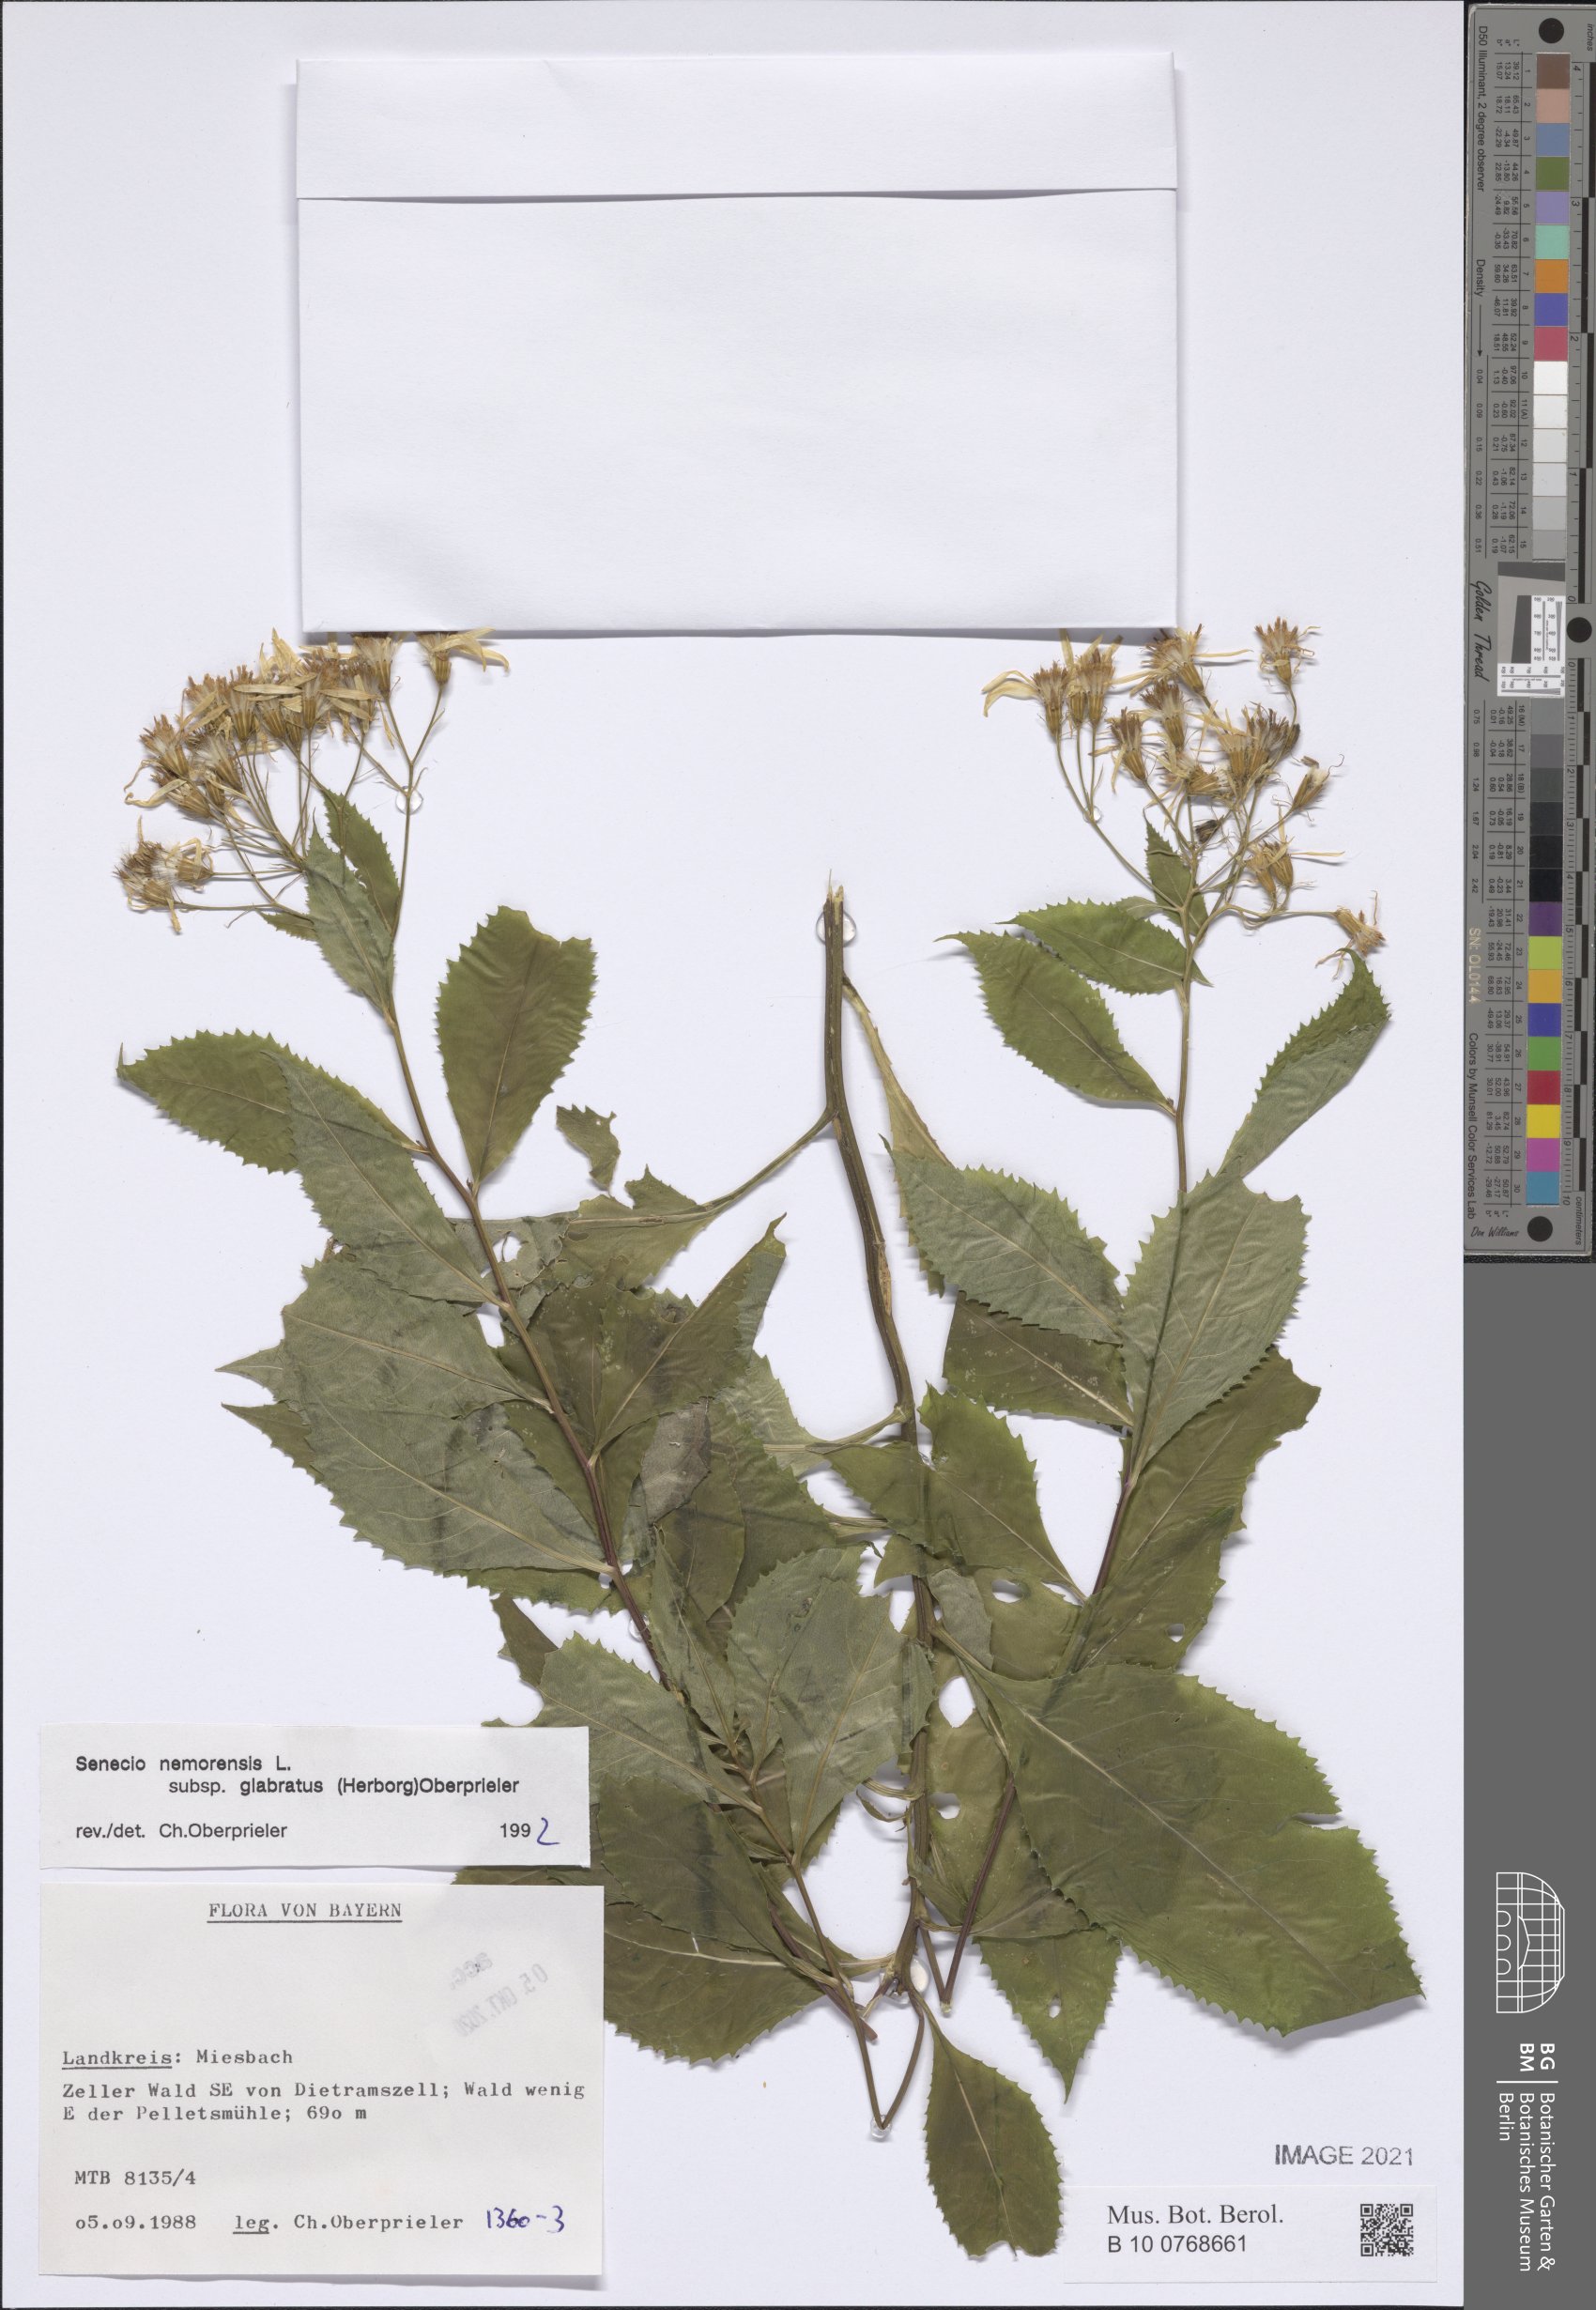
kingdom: Plantae
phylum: Tracheophyta
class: Magnoliopsida
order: Asterales
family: Asteraceae
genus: Senecio
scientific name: Senecio germanicus
